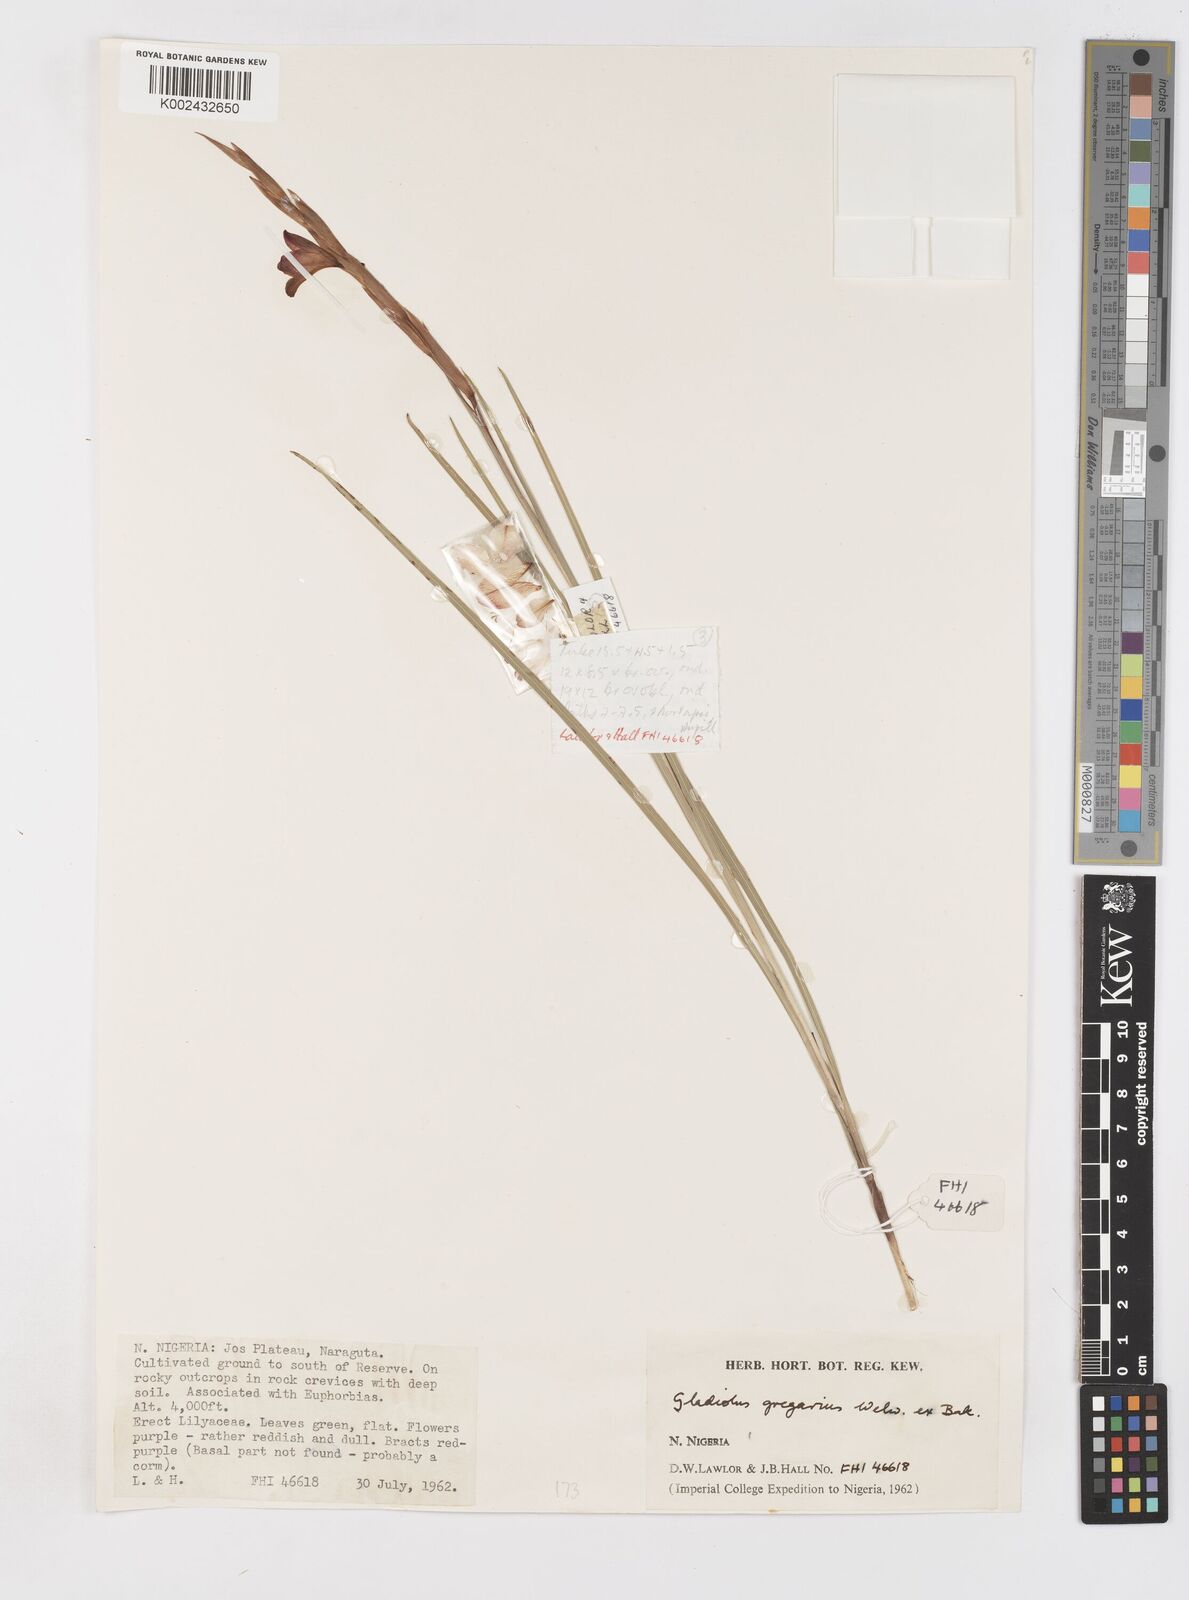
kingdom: Plantae
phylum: Tracheophyta
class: Liliopsida
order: Asparagales
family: Iridaceae
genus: Gladiolus
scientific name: Gladiolus gregarius
